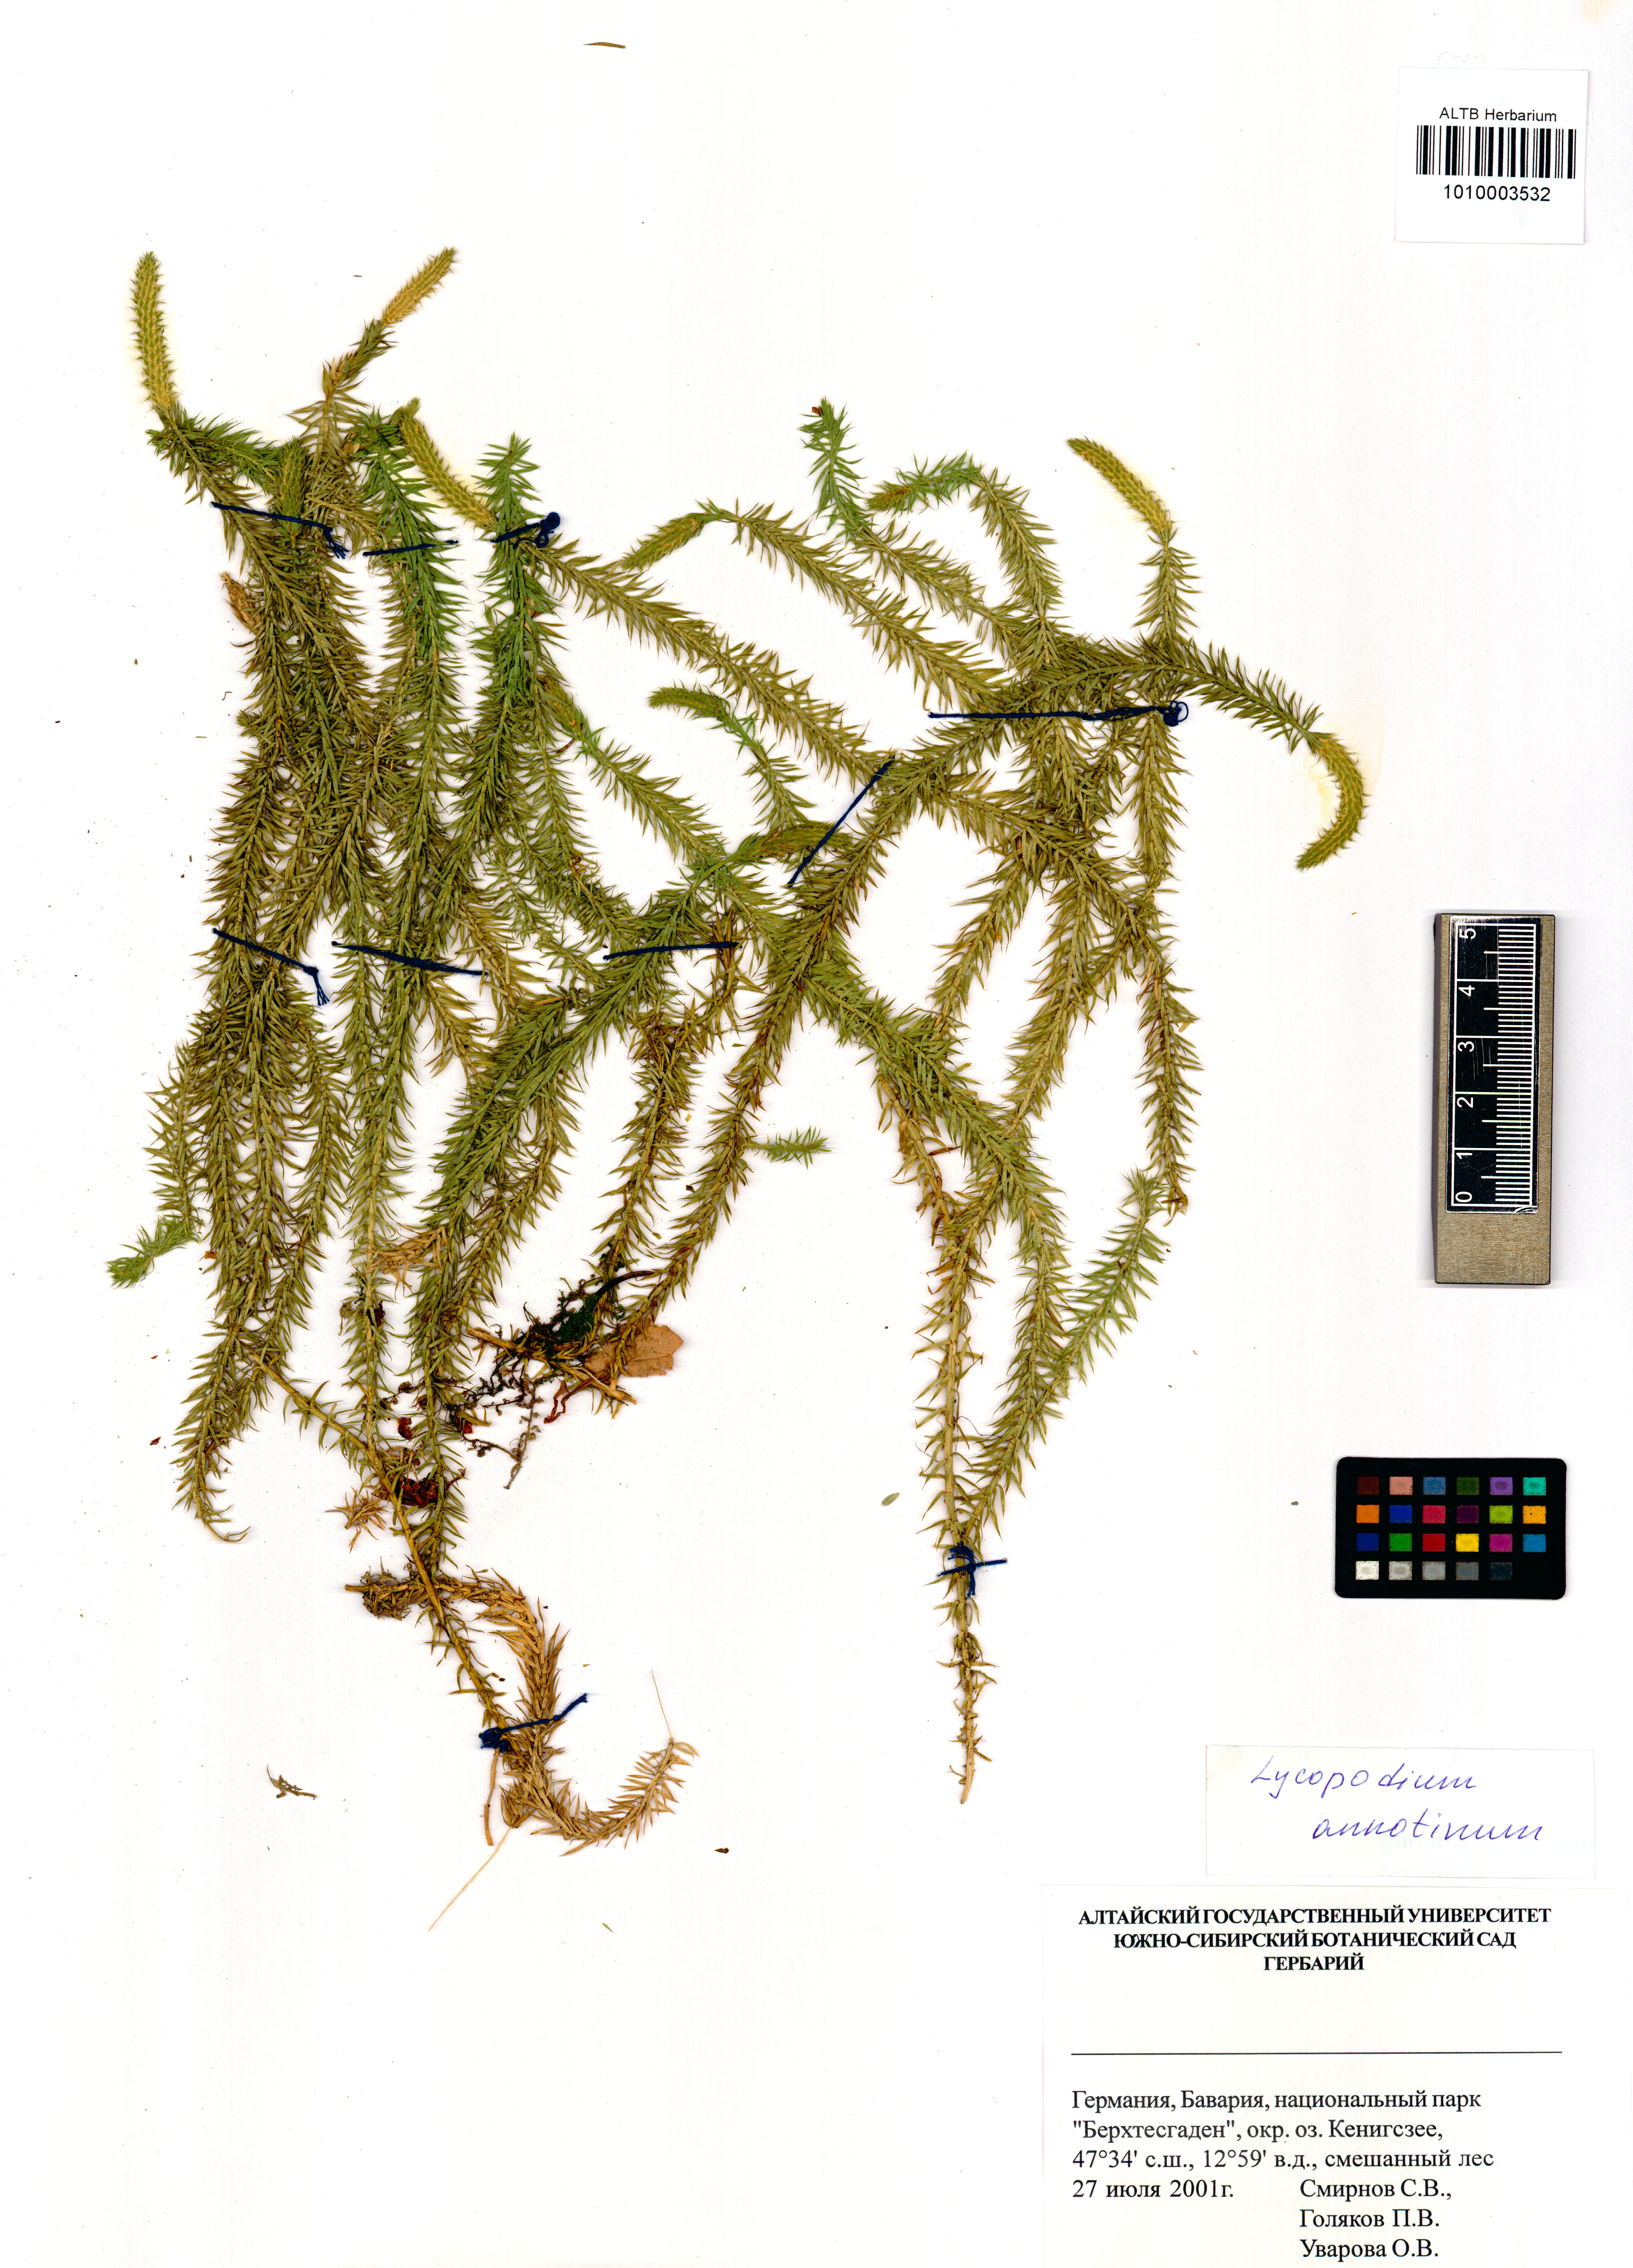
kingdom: Plantae
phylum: Tracheophyta
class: Lycopodiopsida
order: Lycopodiales
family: Lycopodiaceae
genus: Spinulum
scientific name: Spinulum annotinum
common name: Interrupted club-moss
